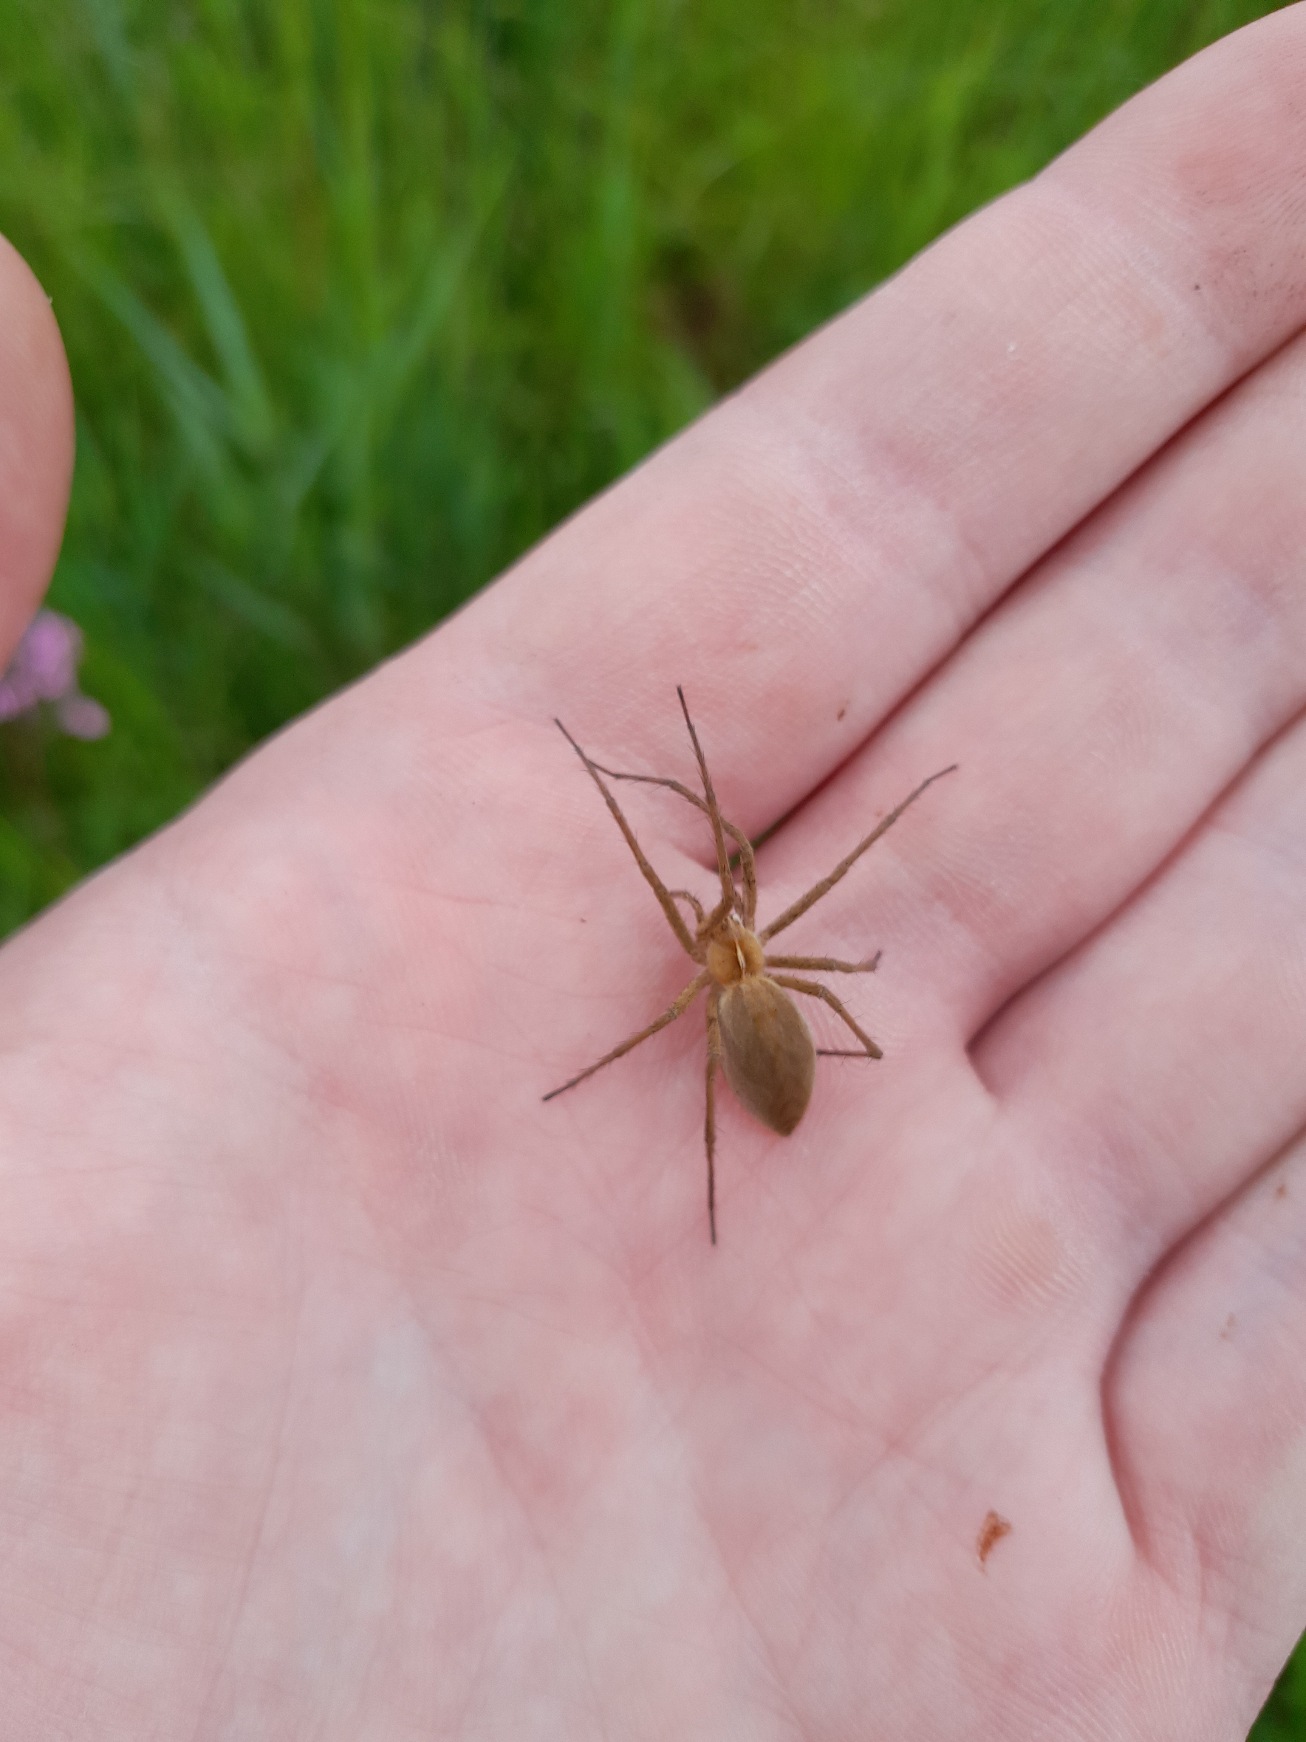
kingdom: Animalia
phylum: Arthropoda
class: Arachnida
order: Araneae
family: Pisauridae
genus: Pisaura
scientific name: Pisaura mirabilis
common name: Almindelig rovedderkop
